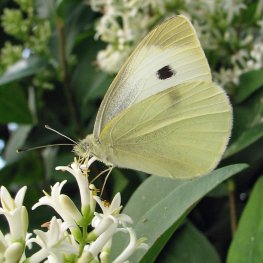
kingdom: Animalia
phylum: Arthropoda
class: Insecta
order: Lepidoptera
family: Pieridae
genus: Pieris
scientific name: Pieris rapae
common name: Cabbage White
